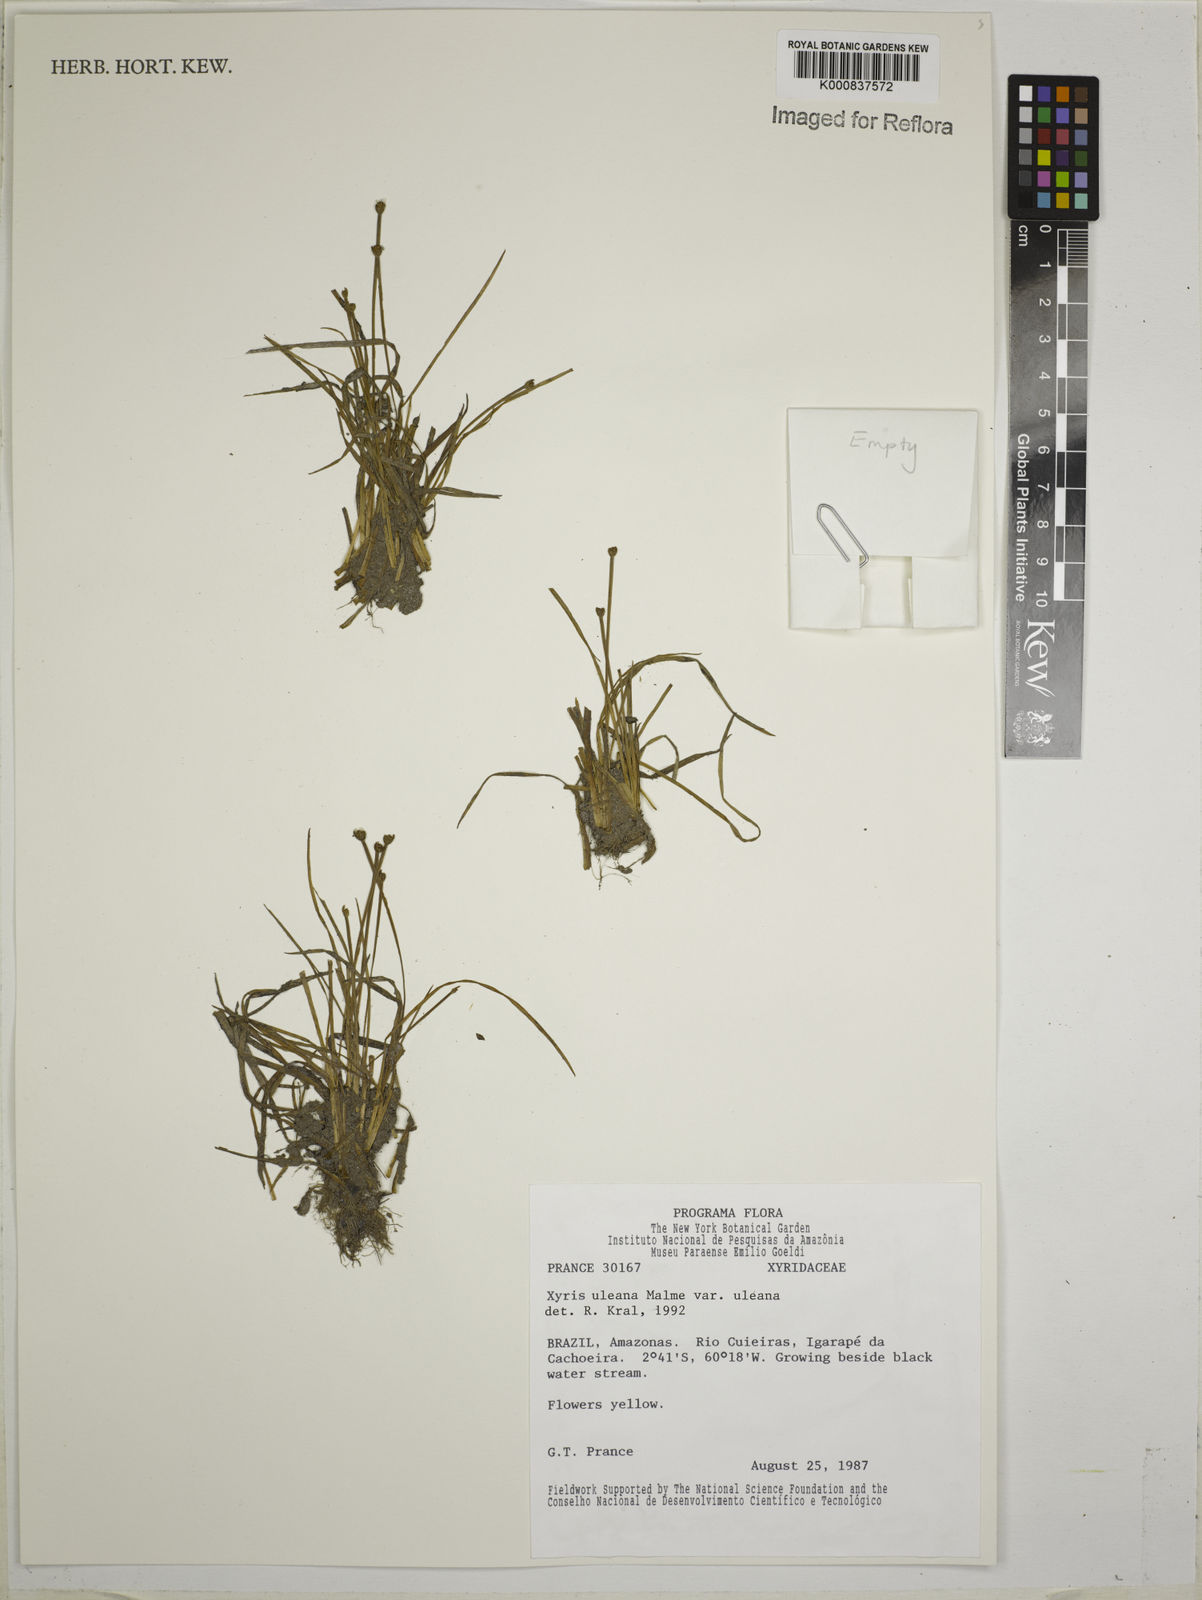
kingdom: Plantae
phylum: Tracheophyta
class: Liliopsida
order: Poales
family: Xyridaceae
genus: Xyris
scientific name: Xyris uleana
